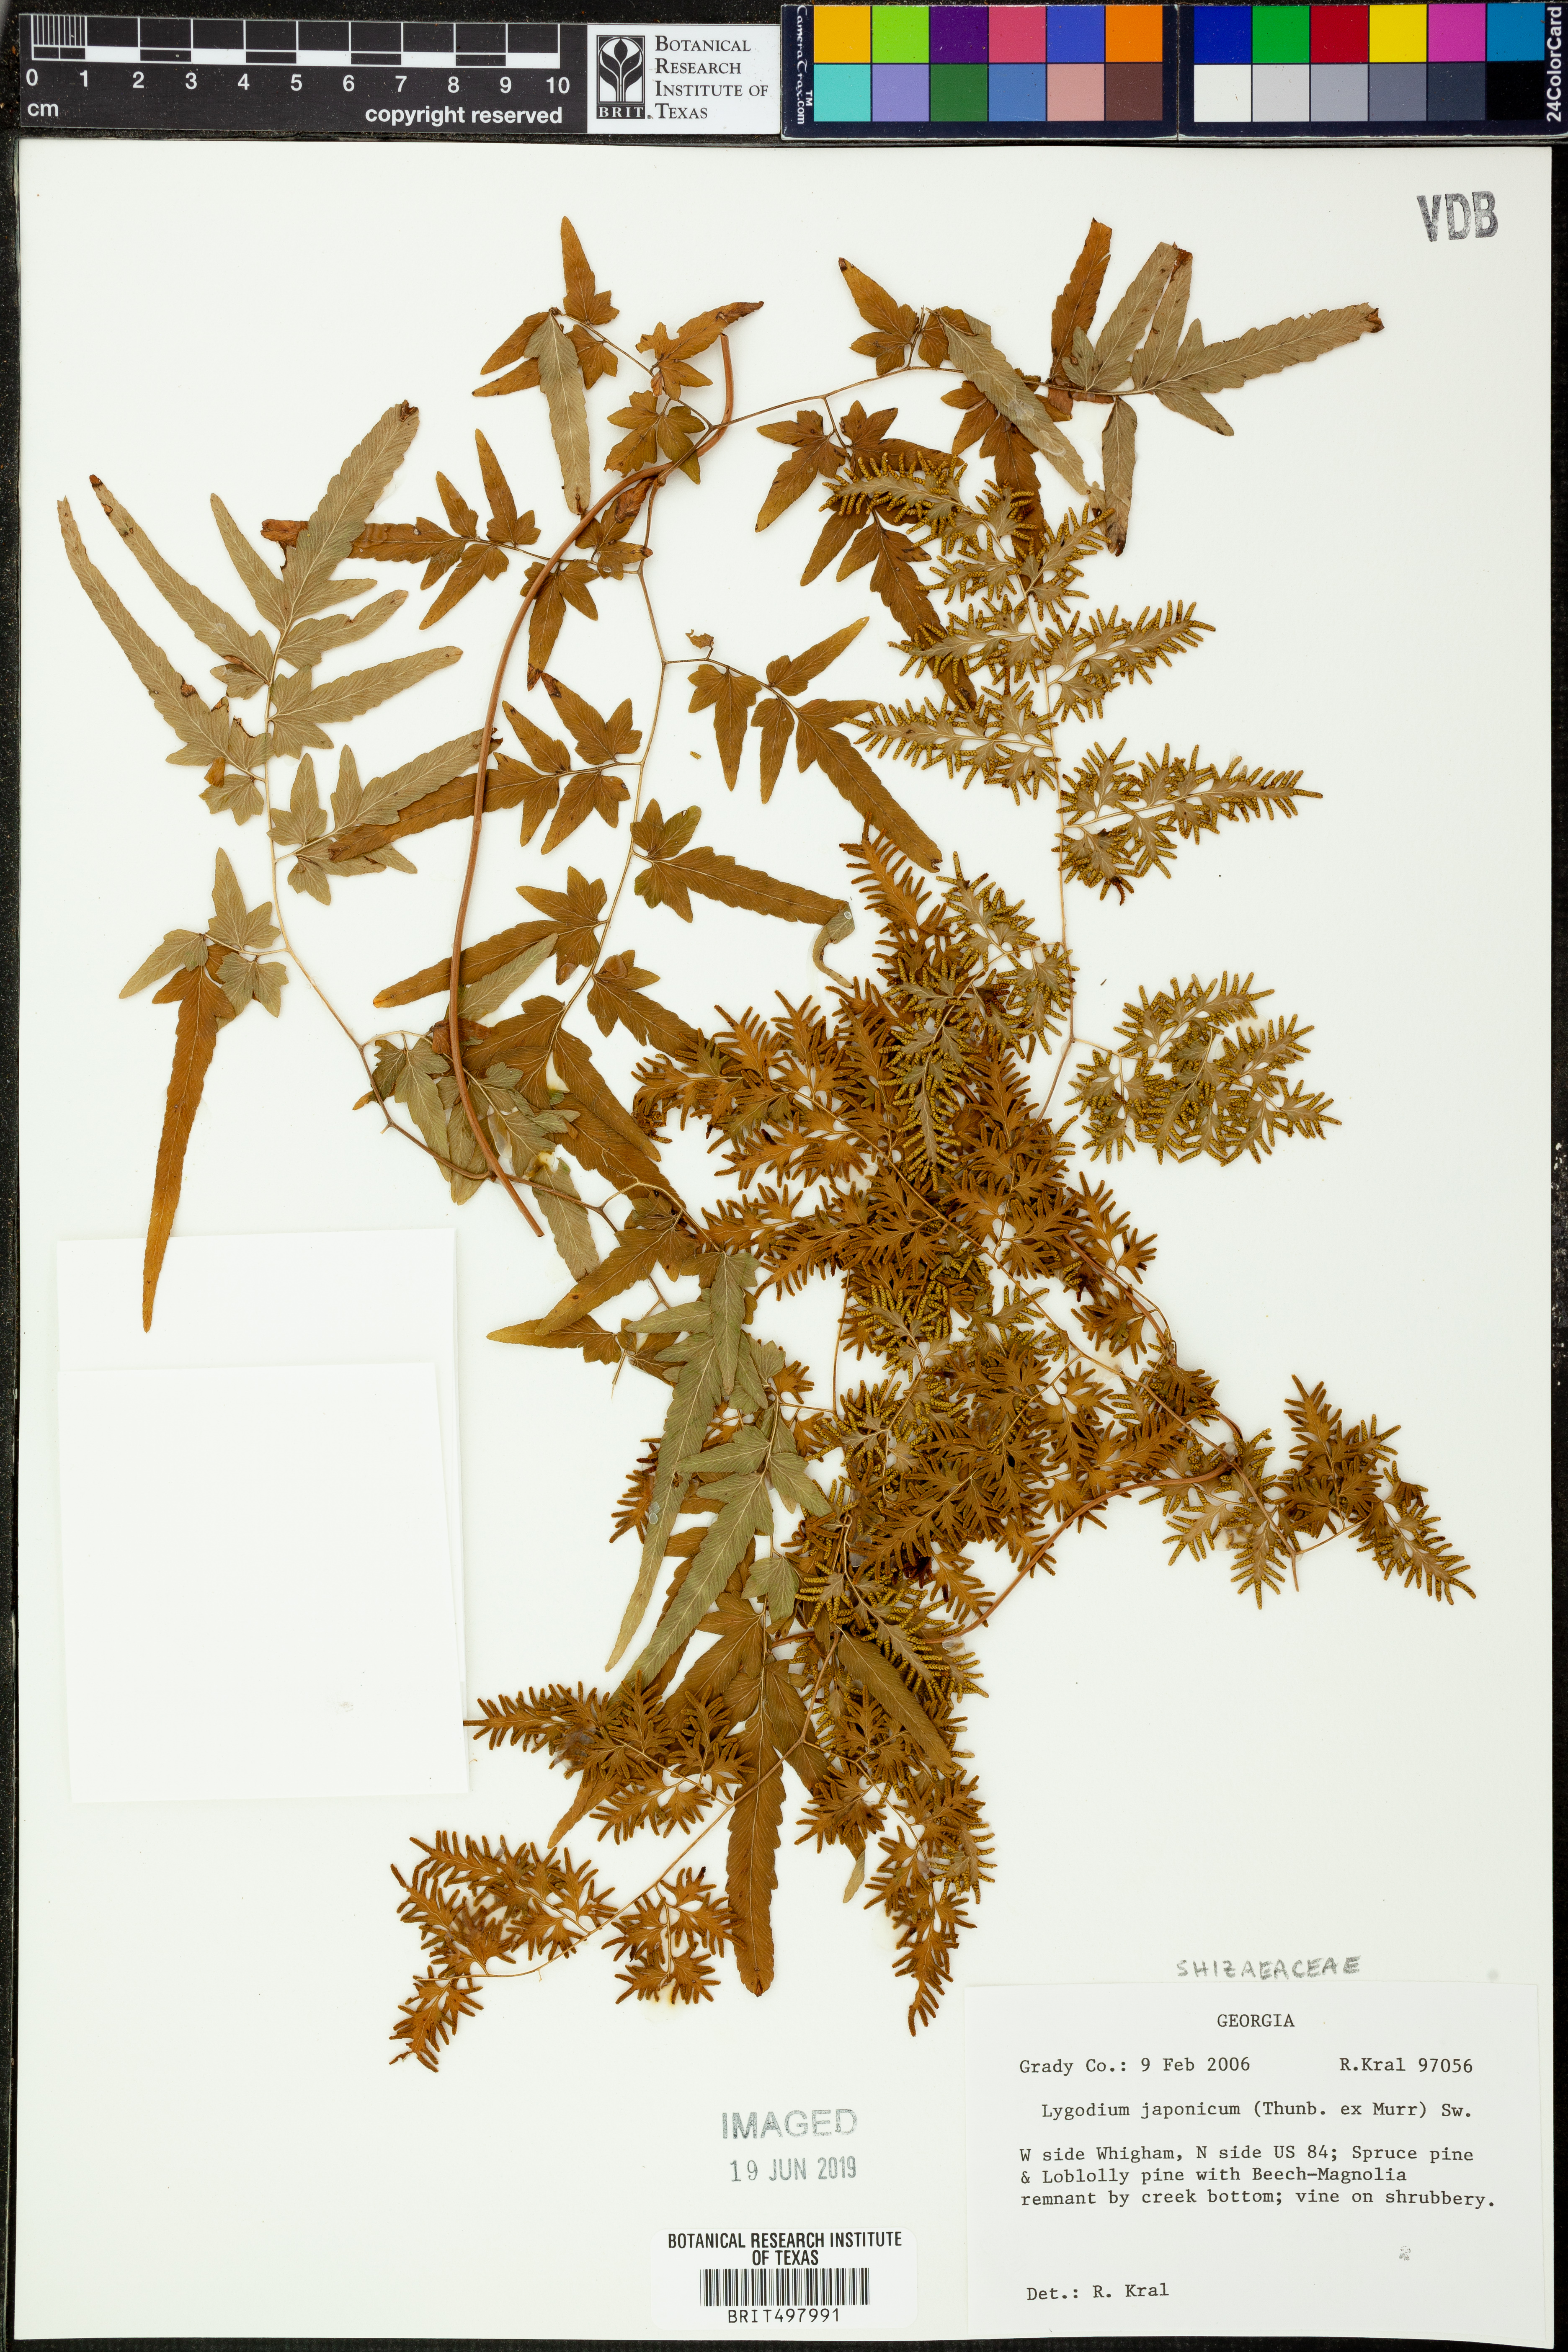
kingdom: Plantae
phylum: Tracheophyta
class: Polypodiopsida
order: Schizaeales
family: Lygodiaceae
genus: Lygodium
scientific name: Lygodium japonicum
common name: Japanese climbing fern
